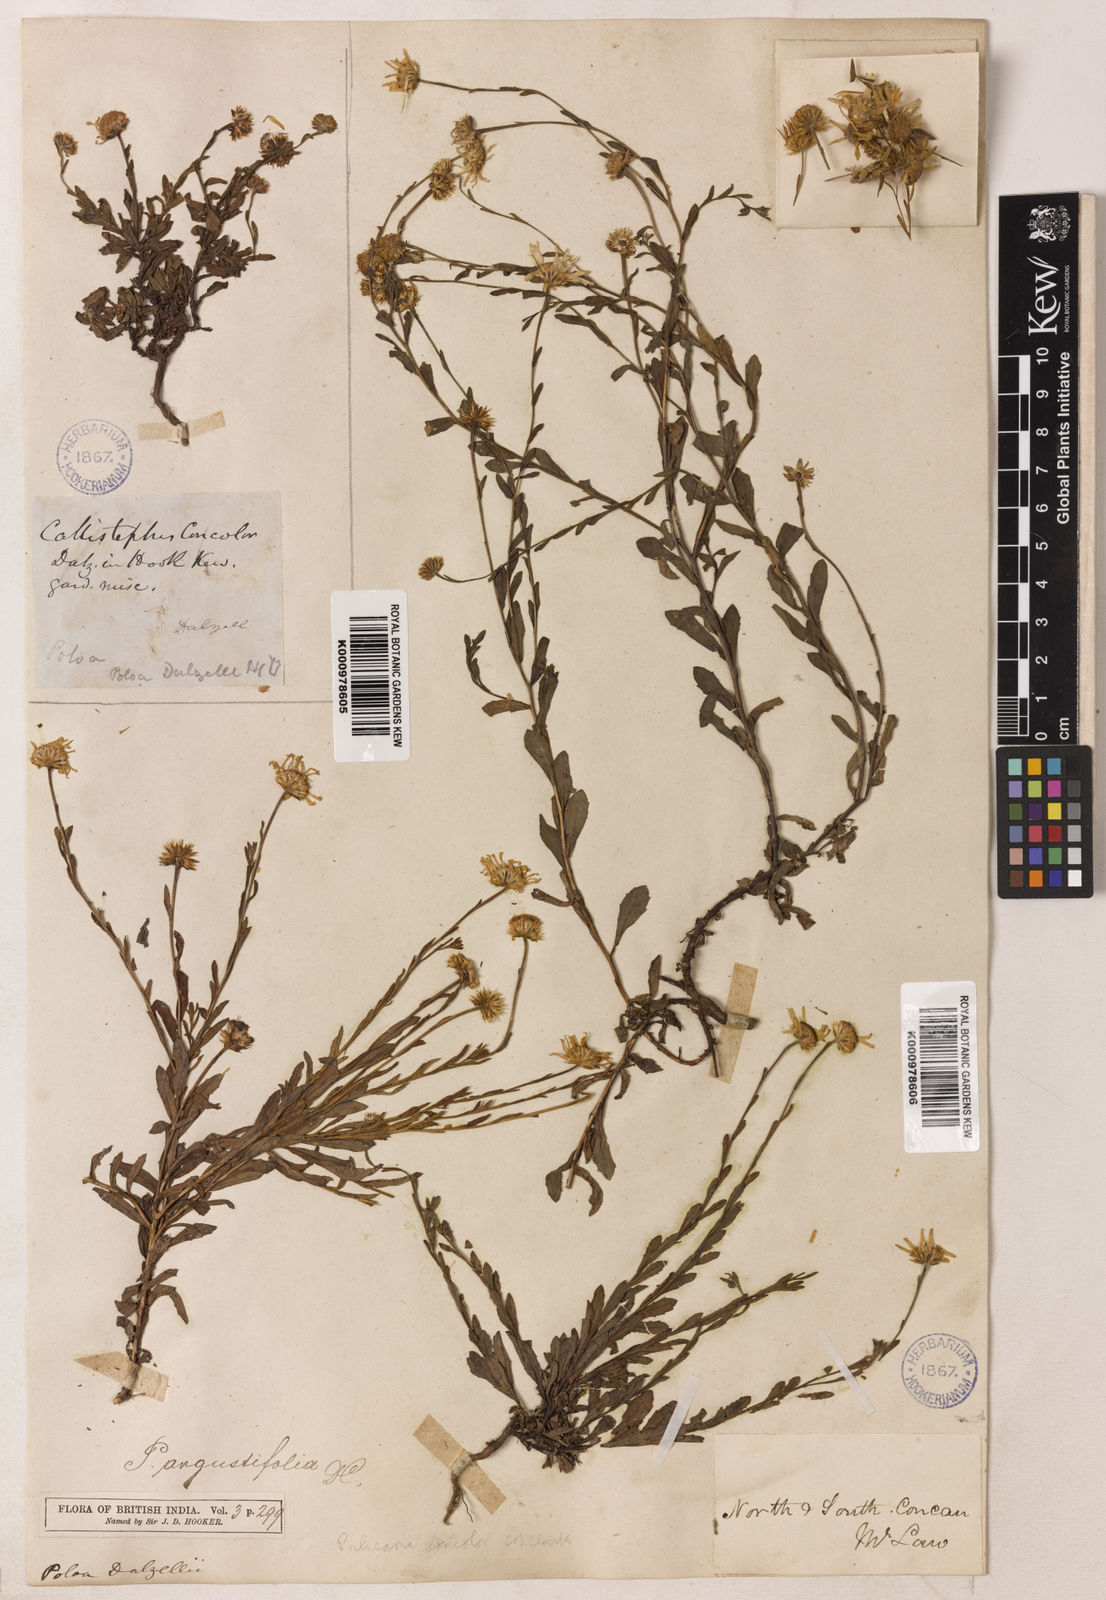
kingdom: Plantae
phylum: Tracheophyta
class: Magnoliopsida
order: Asterales
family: Asteraceae
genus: Pulicaria
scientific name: Pulicaria angustifolia
